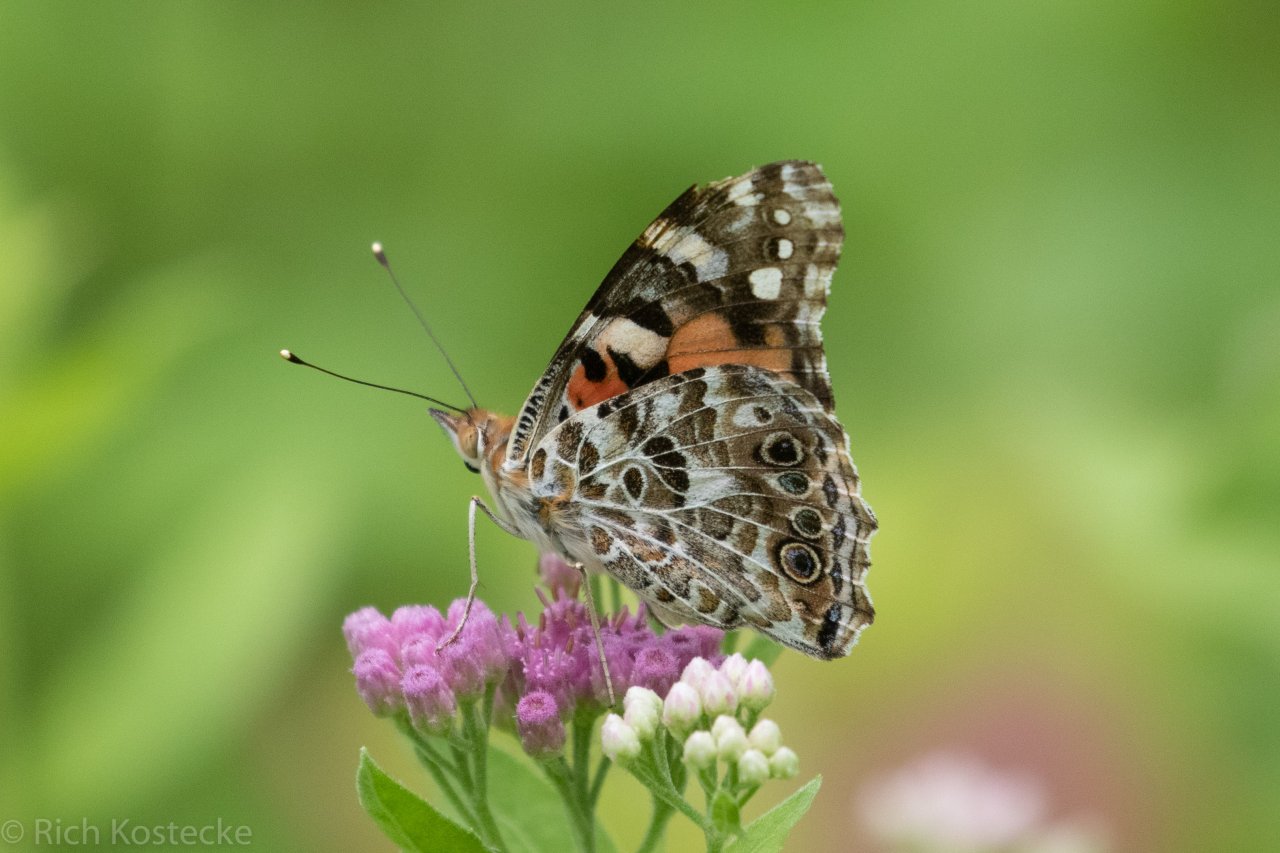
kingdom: Animalia
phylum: Arthropoda
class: Insecta
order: Lepidoptera
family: Nymphalidae
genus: Vanessa
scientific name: Vanessa cardui
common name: Painted Lady
